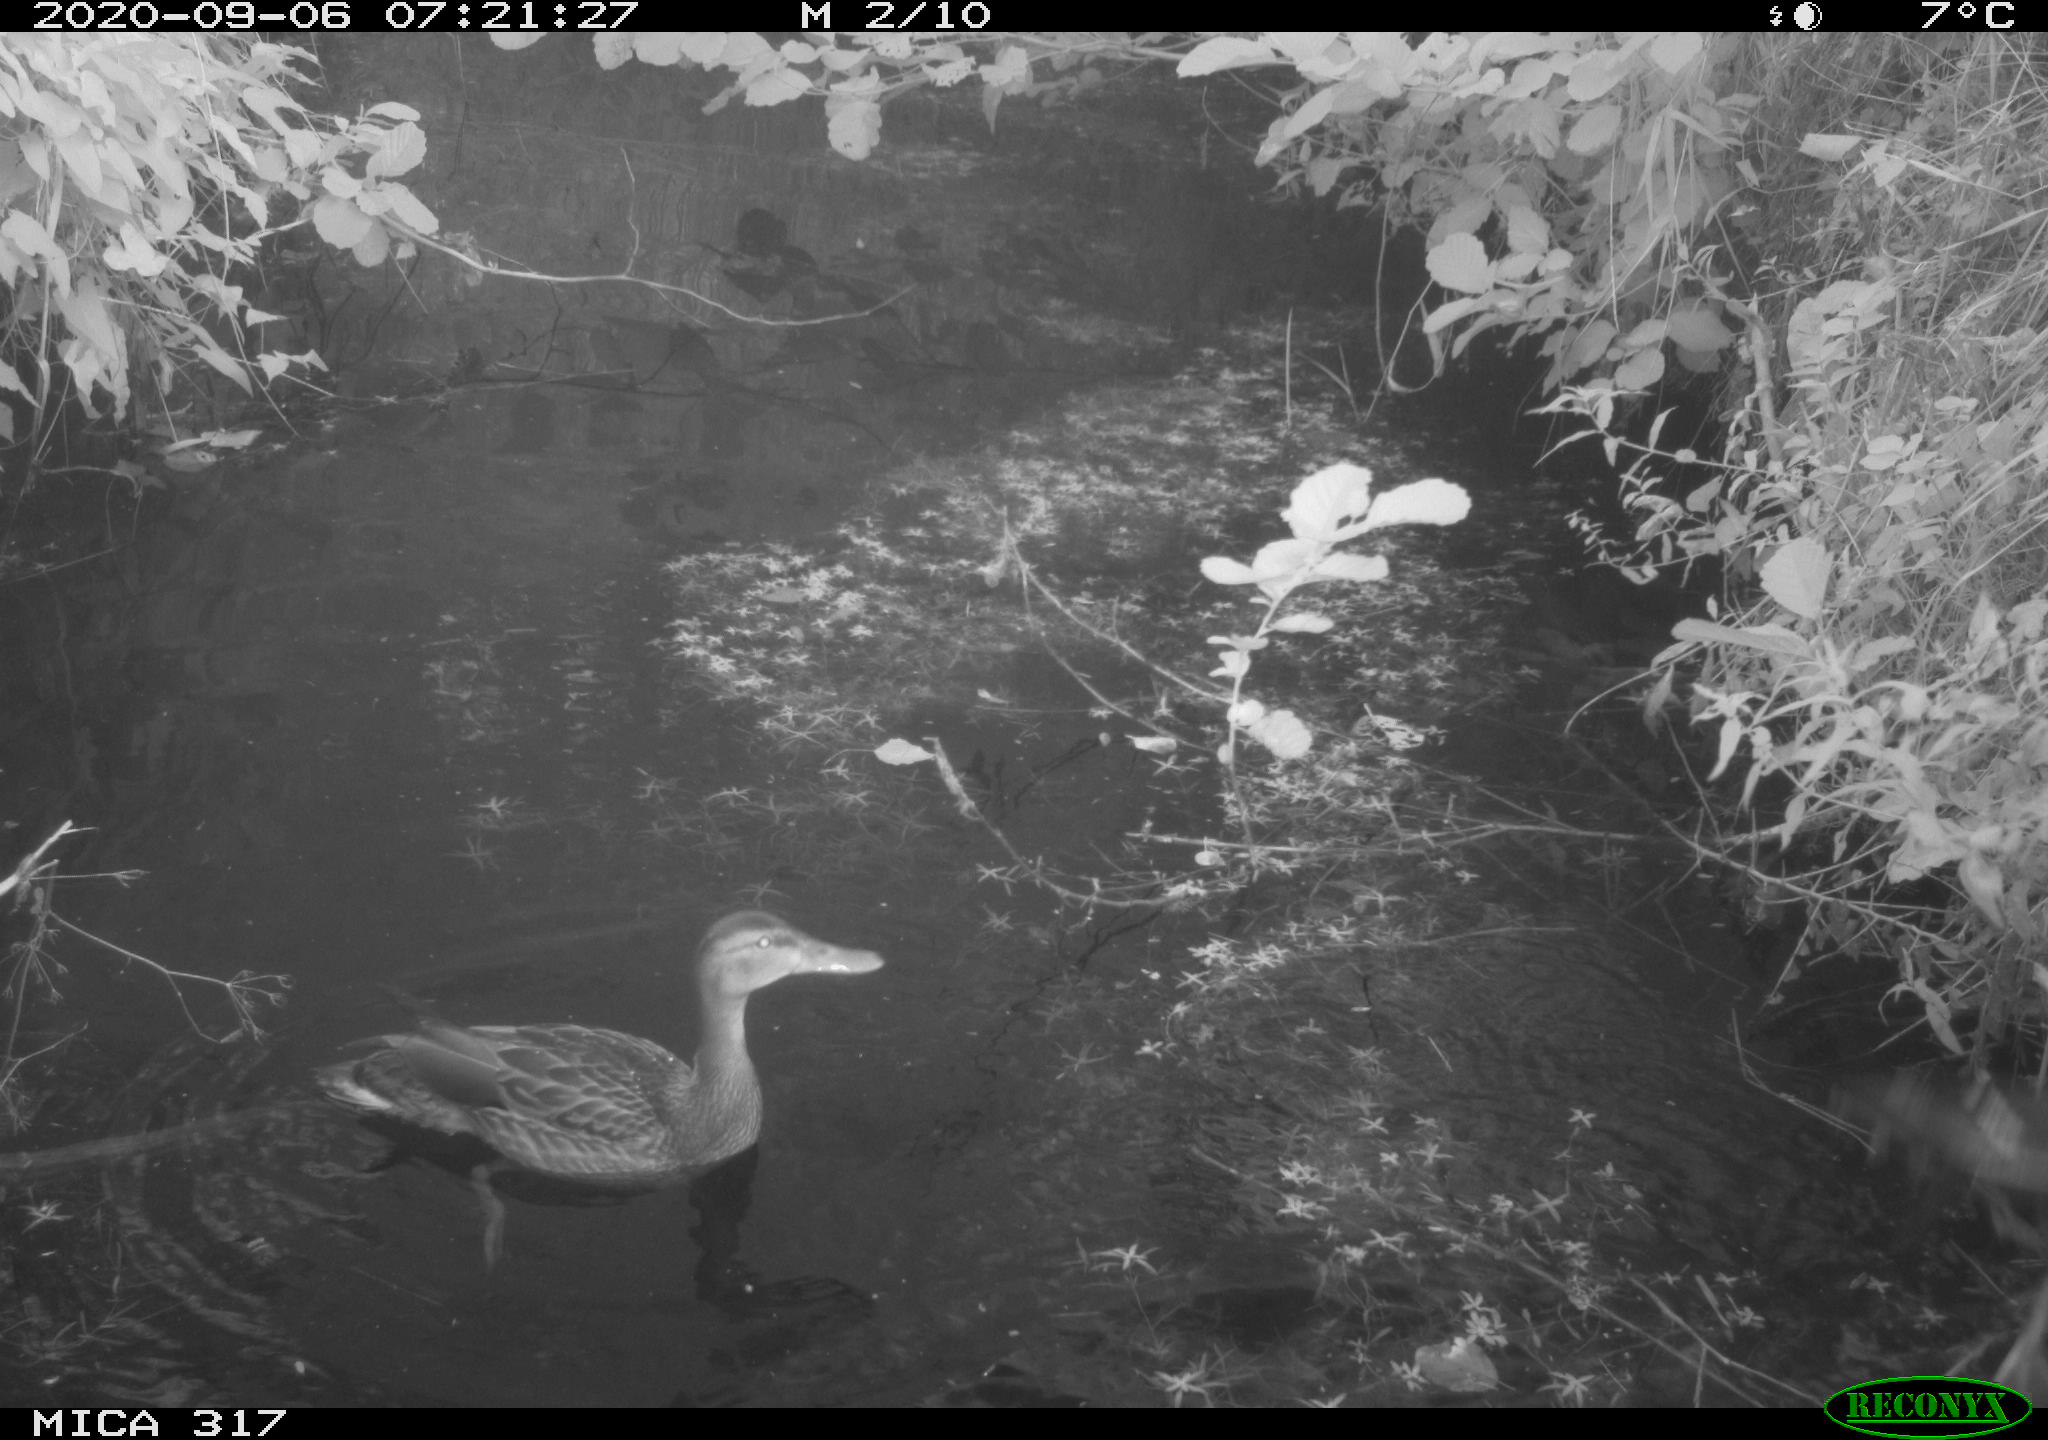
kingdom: Animalia
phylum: Chordata
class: Aves
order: Anseriformes
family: Anatidae
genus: Anas
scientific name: Anas platyrhynchos
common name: Mallard
